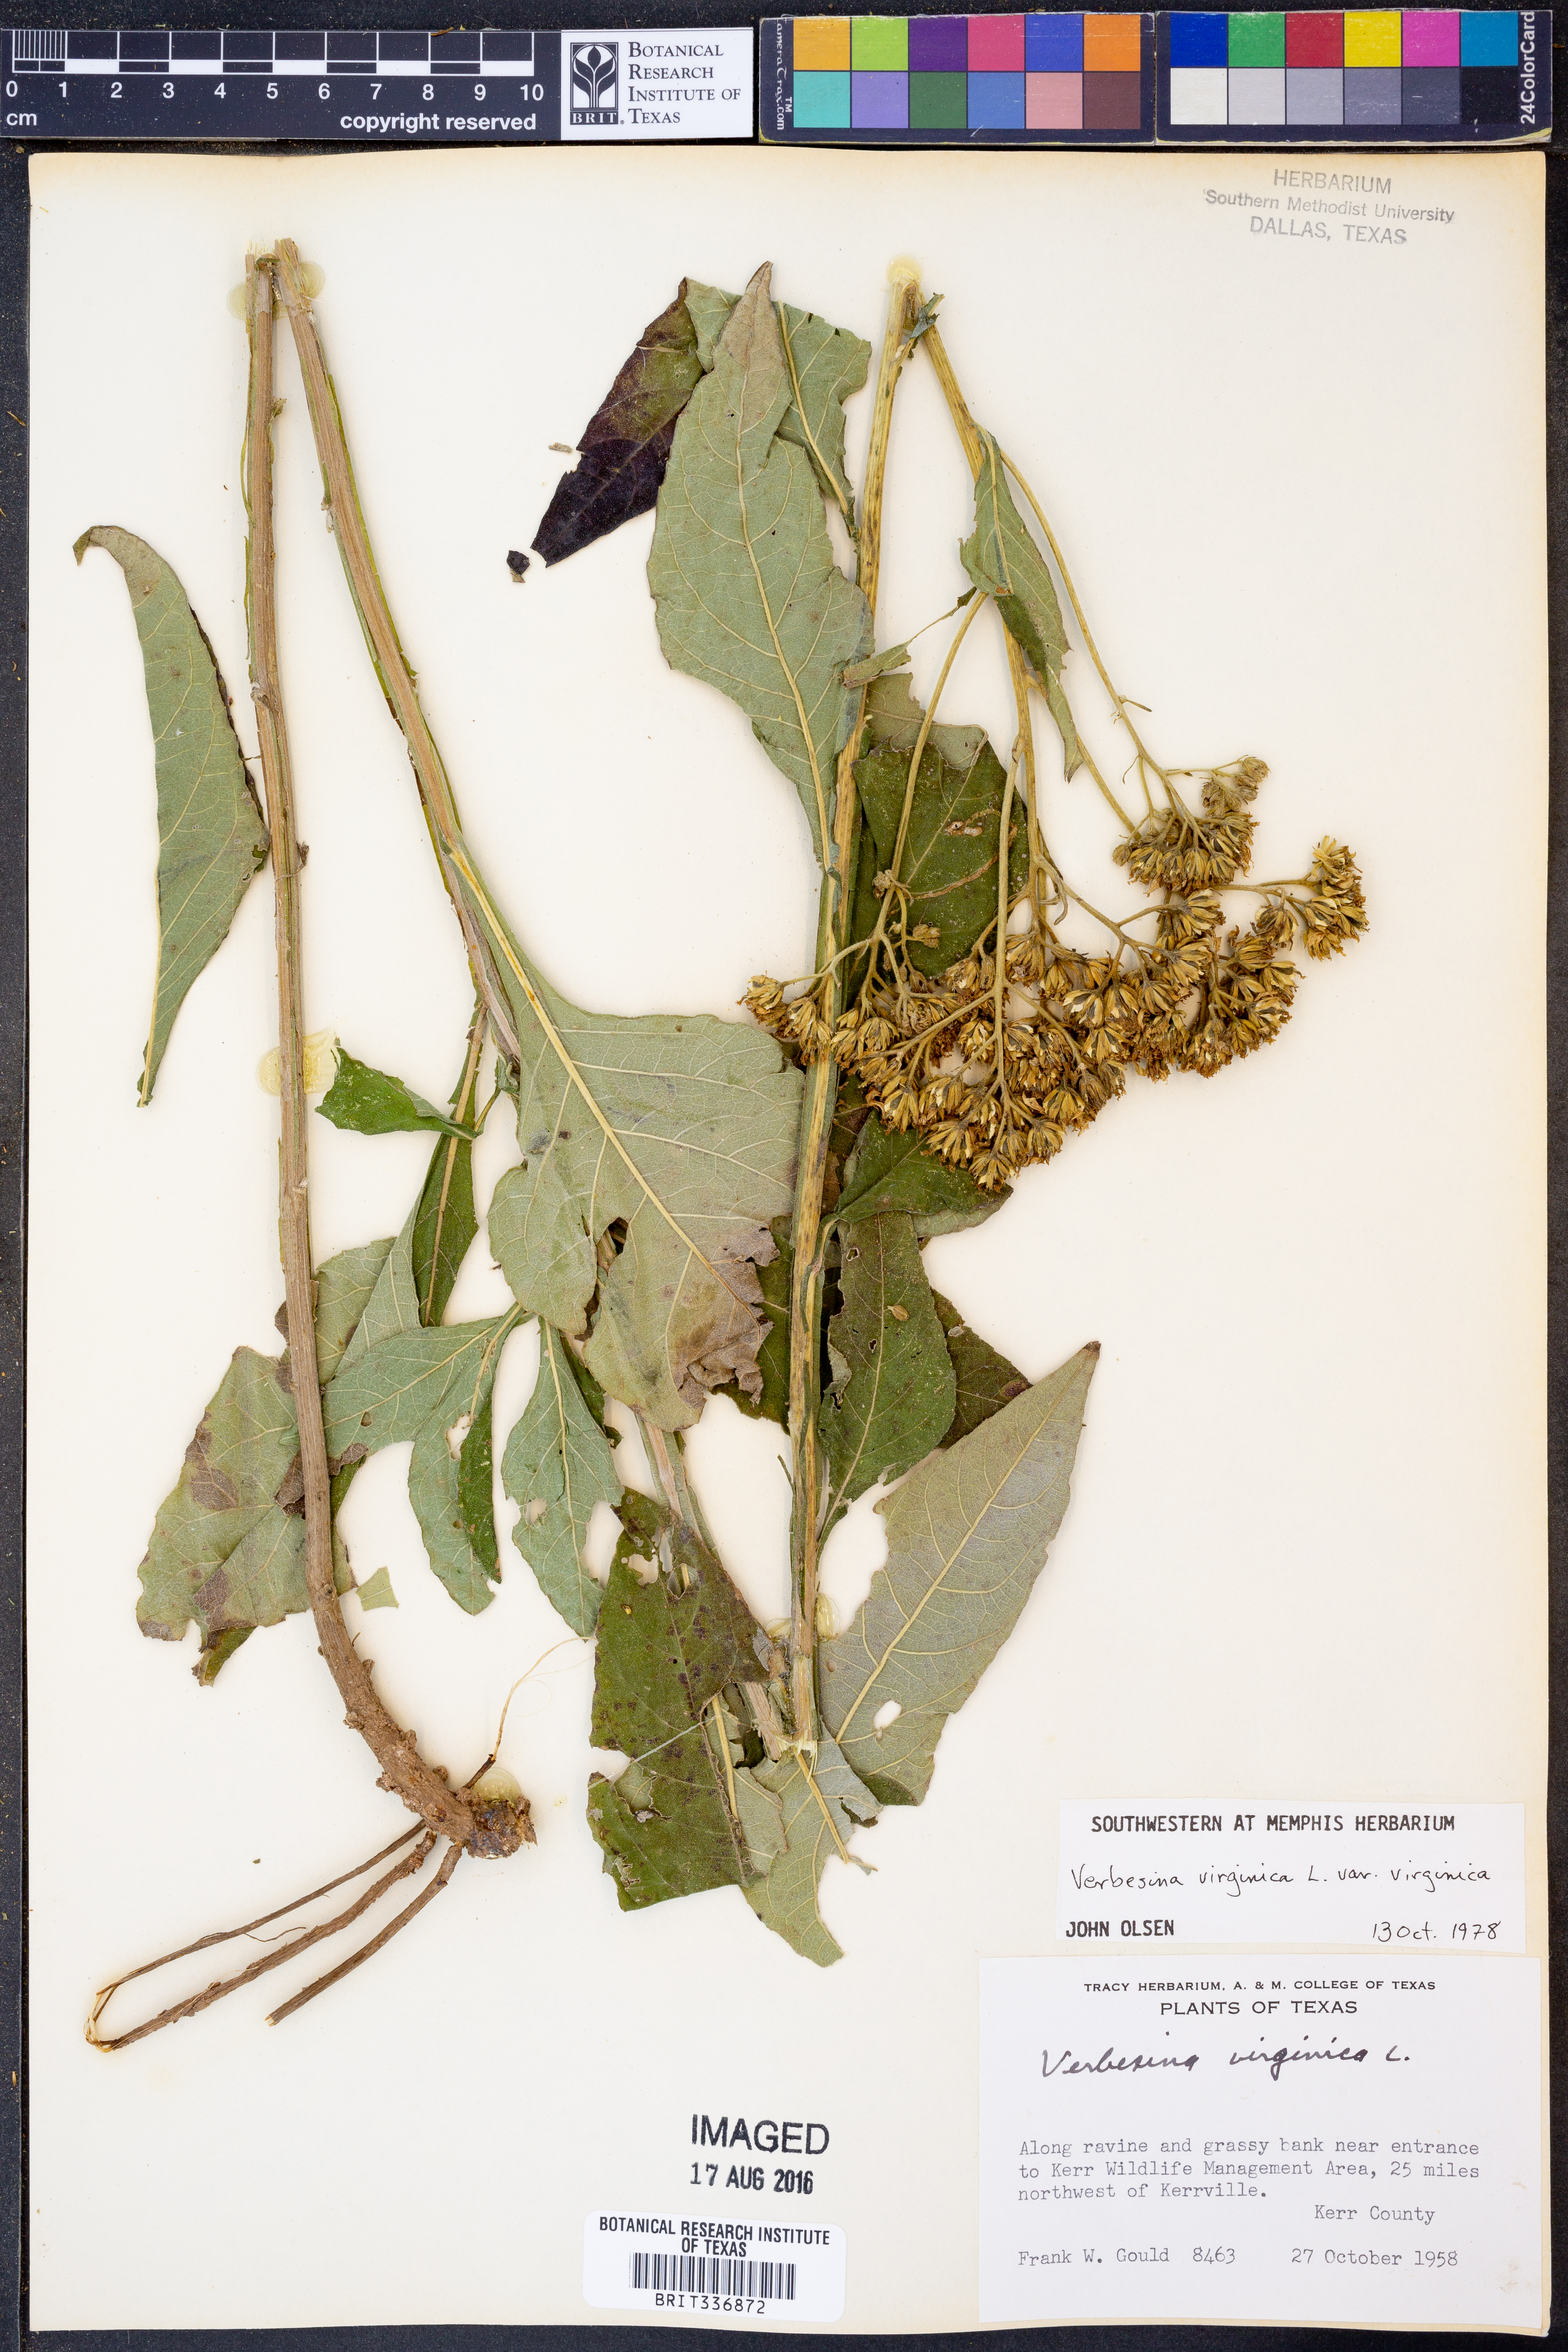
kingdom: Plantae
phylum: Tracheophyta
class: Magnoliopsida
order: Asterales
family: Asteraceae
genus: Verbesina
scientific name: Verbesina virginica
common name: Frostweed
